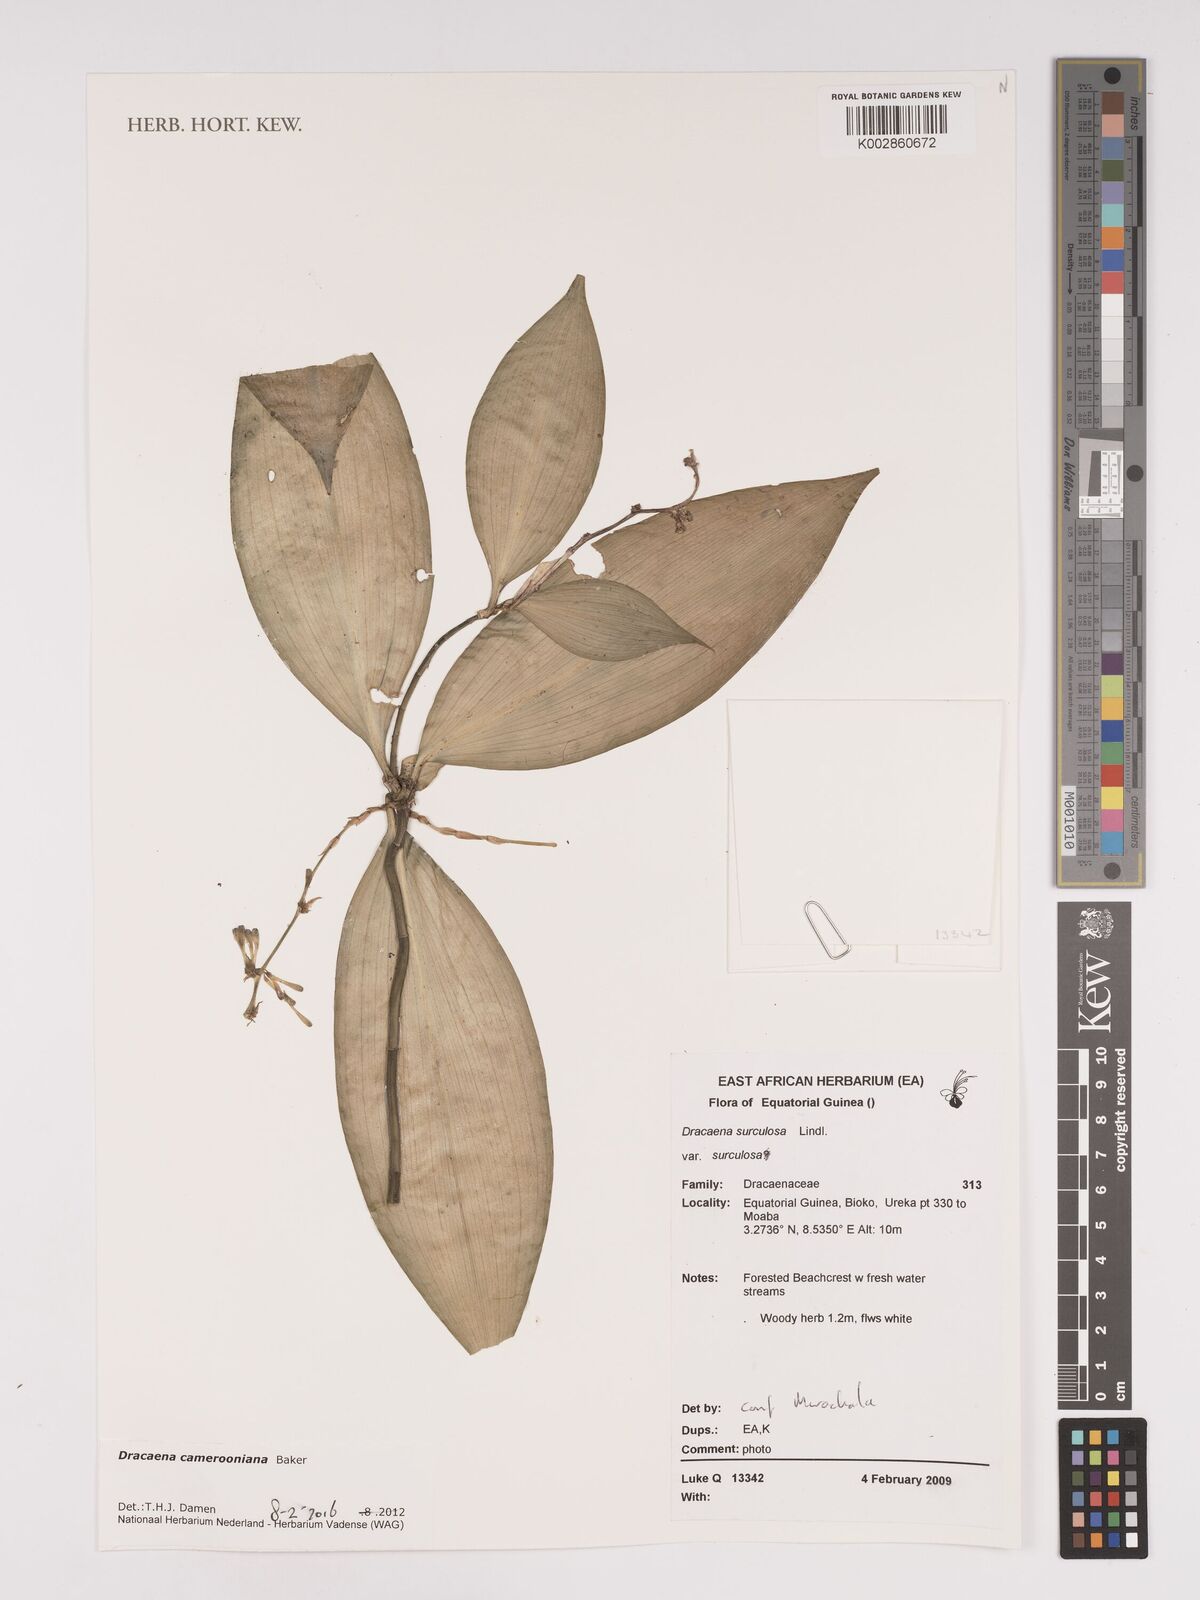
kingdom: Plantae
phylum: Tracheophyta
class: Liliopsida
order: Asparagales
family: Asparagaceae
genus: Dracaena
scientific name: Dracaena camerooniana
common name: Dragon tree
